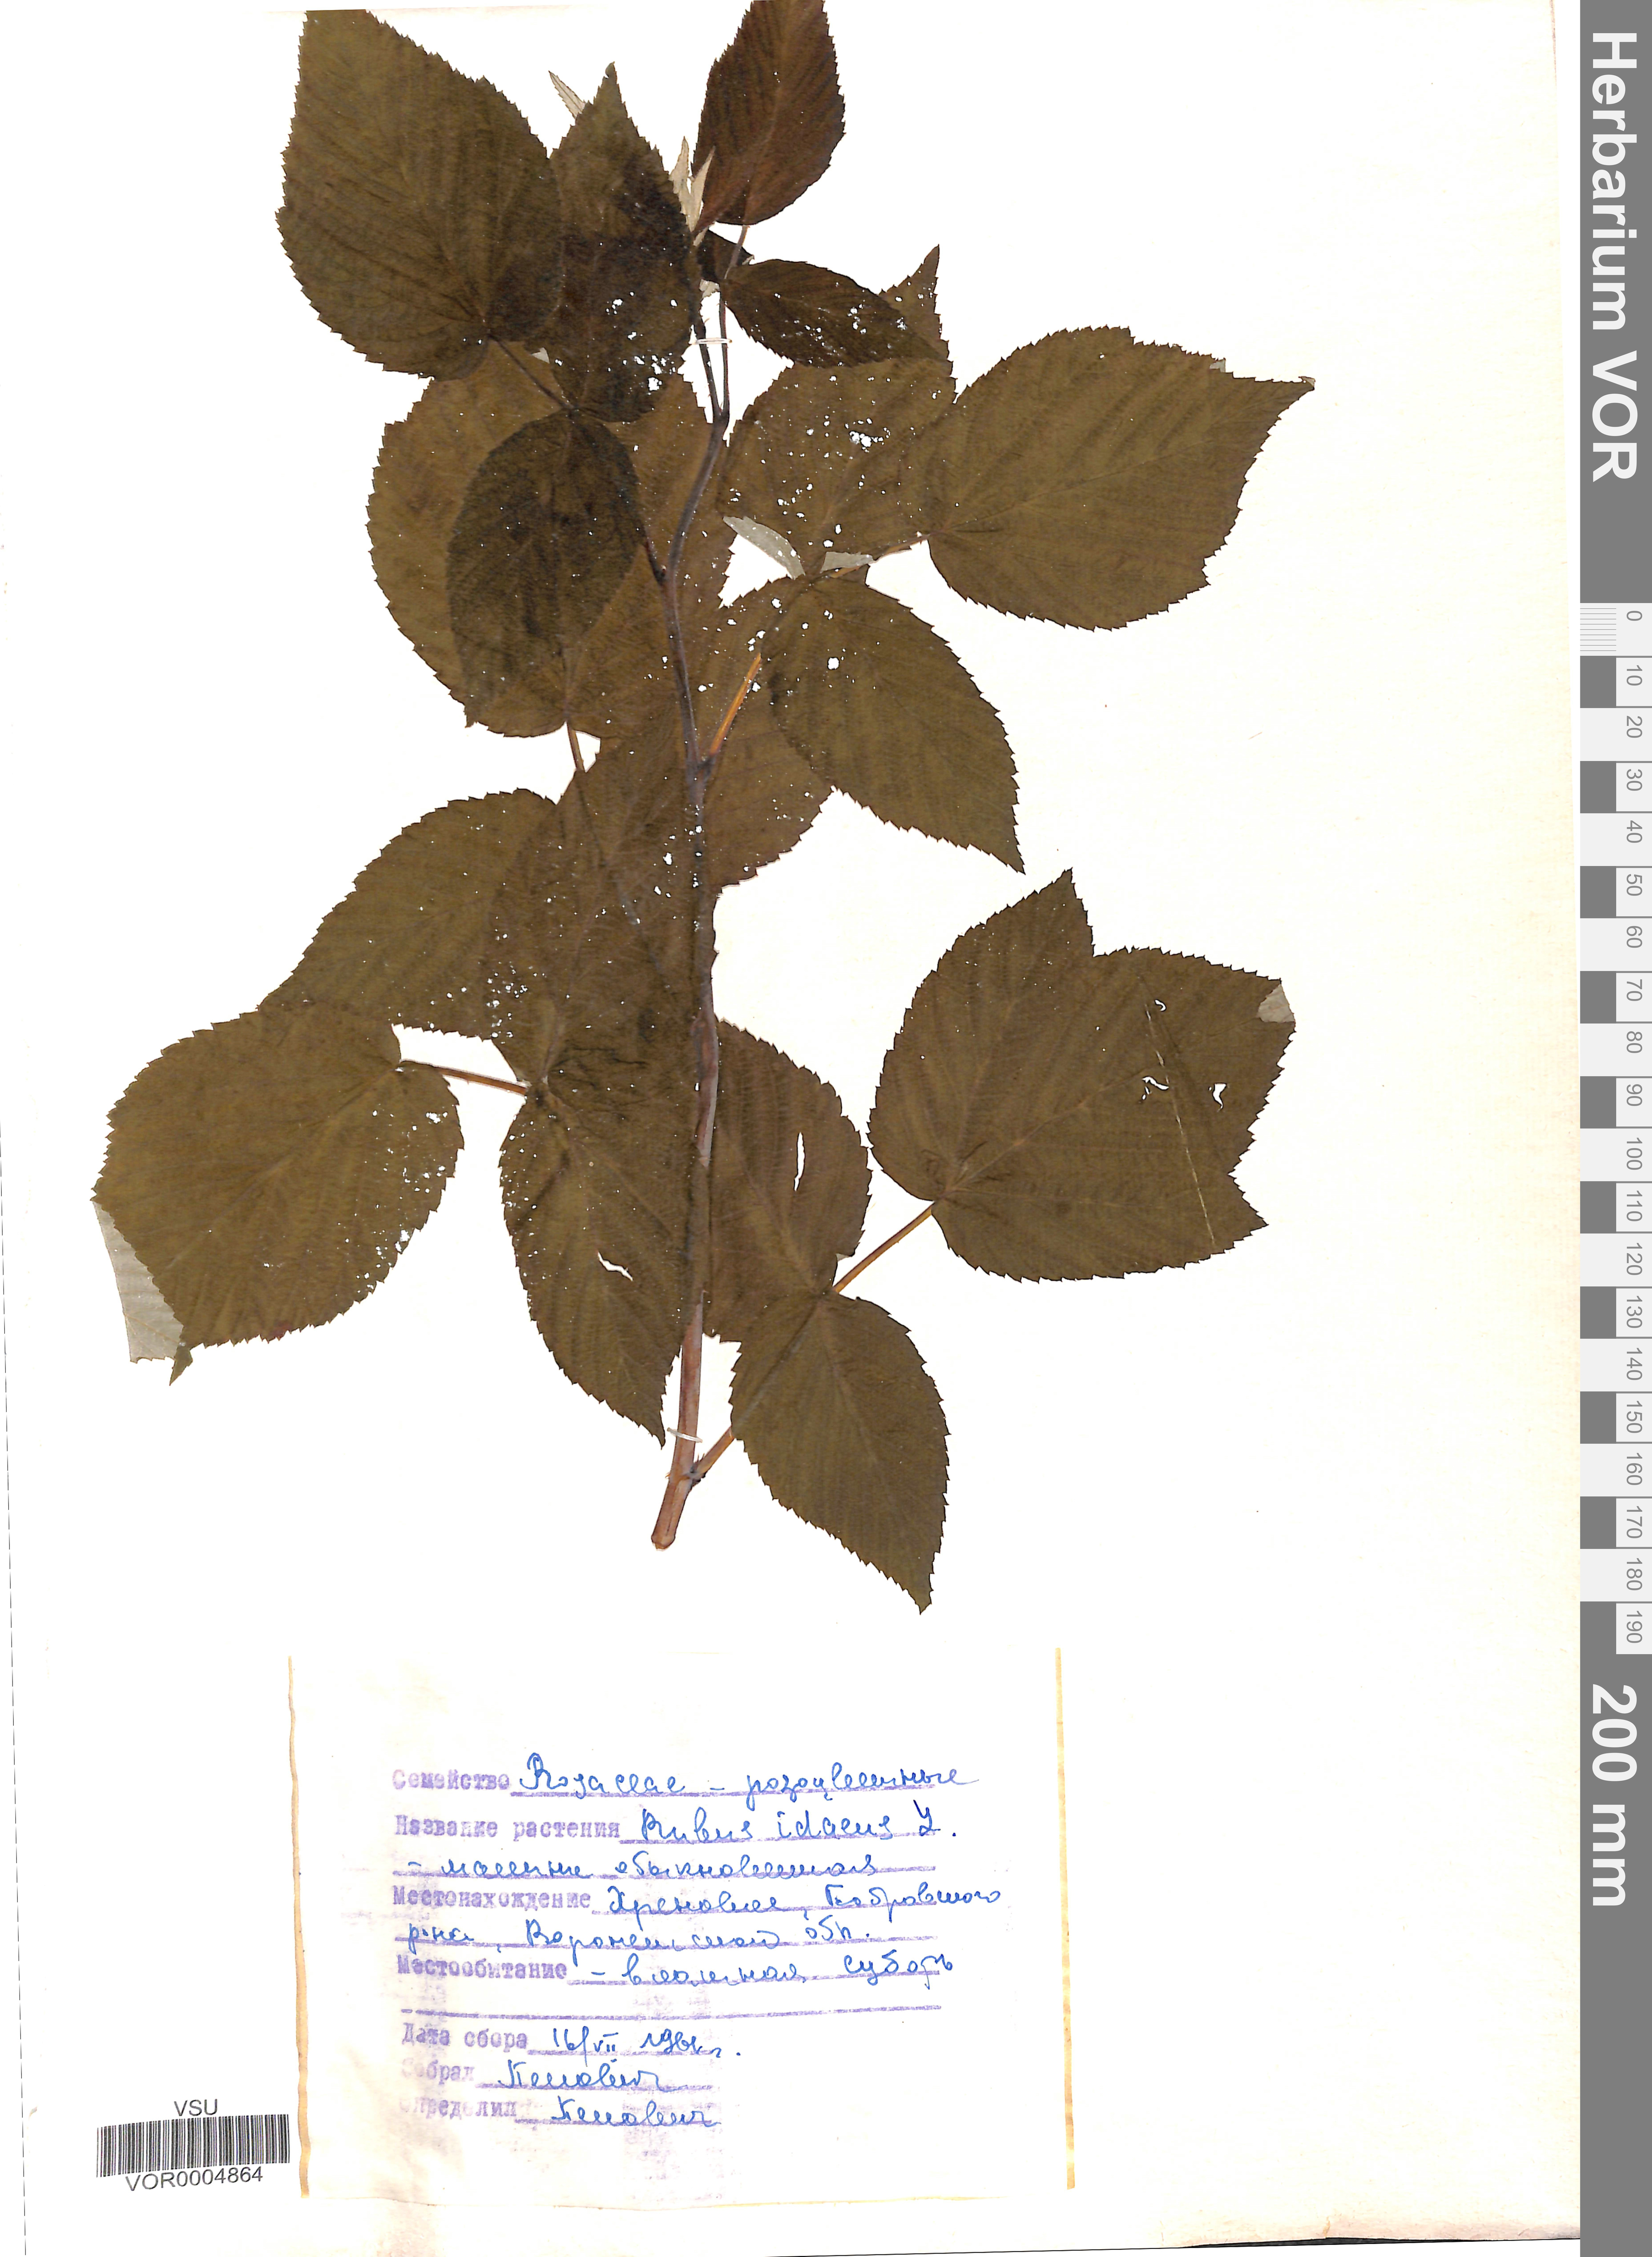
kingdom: Plantae
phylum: Tracheophyta
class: Magnoliopsida
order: Rosales
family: Rosaceae
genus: Rubus
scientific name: Rubus idaeus
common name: Raspberry
